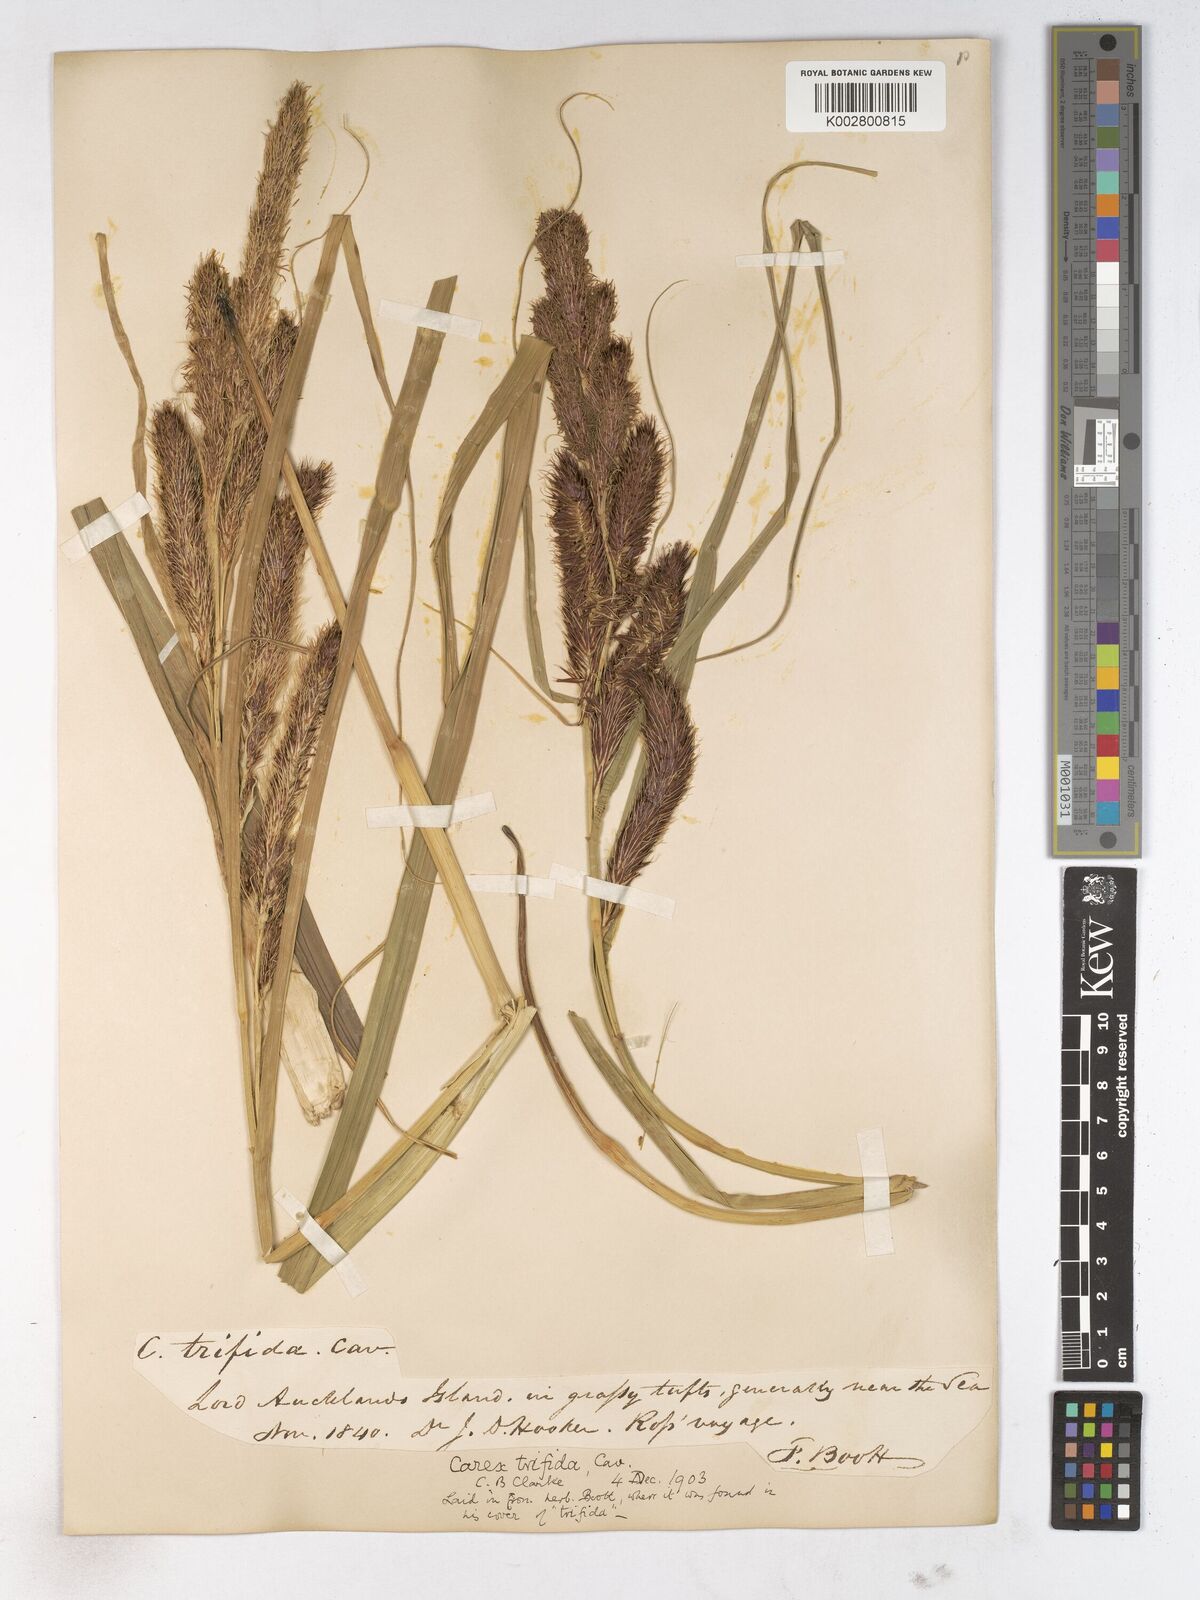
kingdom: Plantae
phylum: Tracheophyta
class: Liliopsida
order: Poales
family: Cyperaceae
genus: Carex
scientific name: Carex trifida
